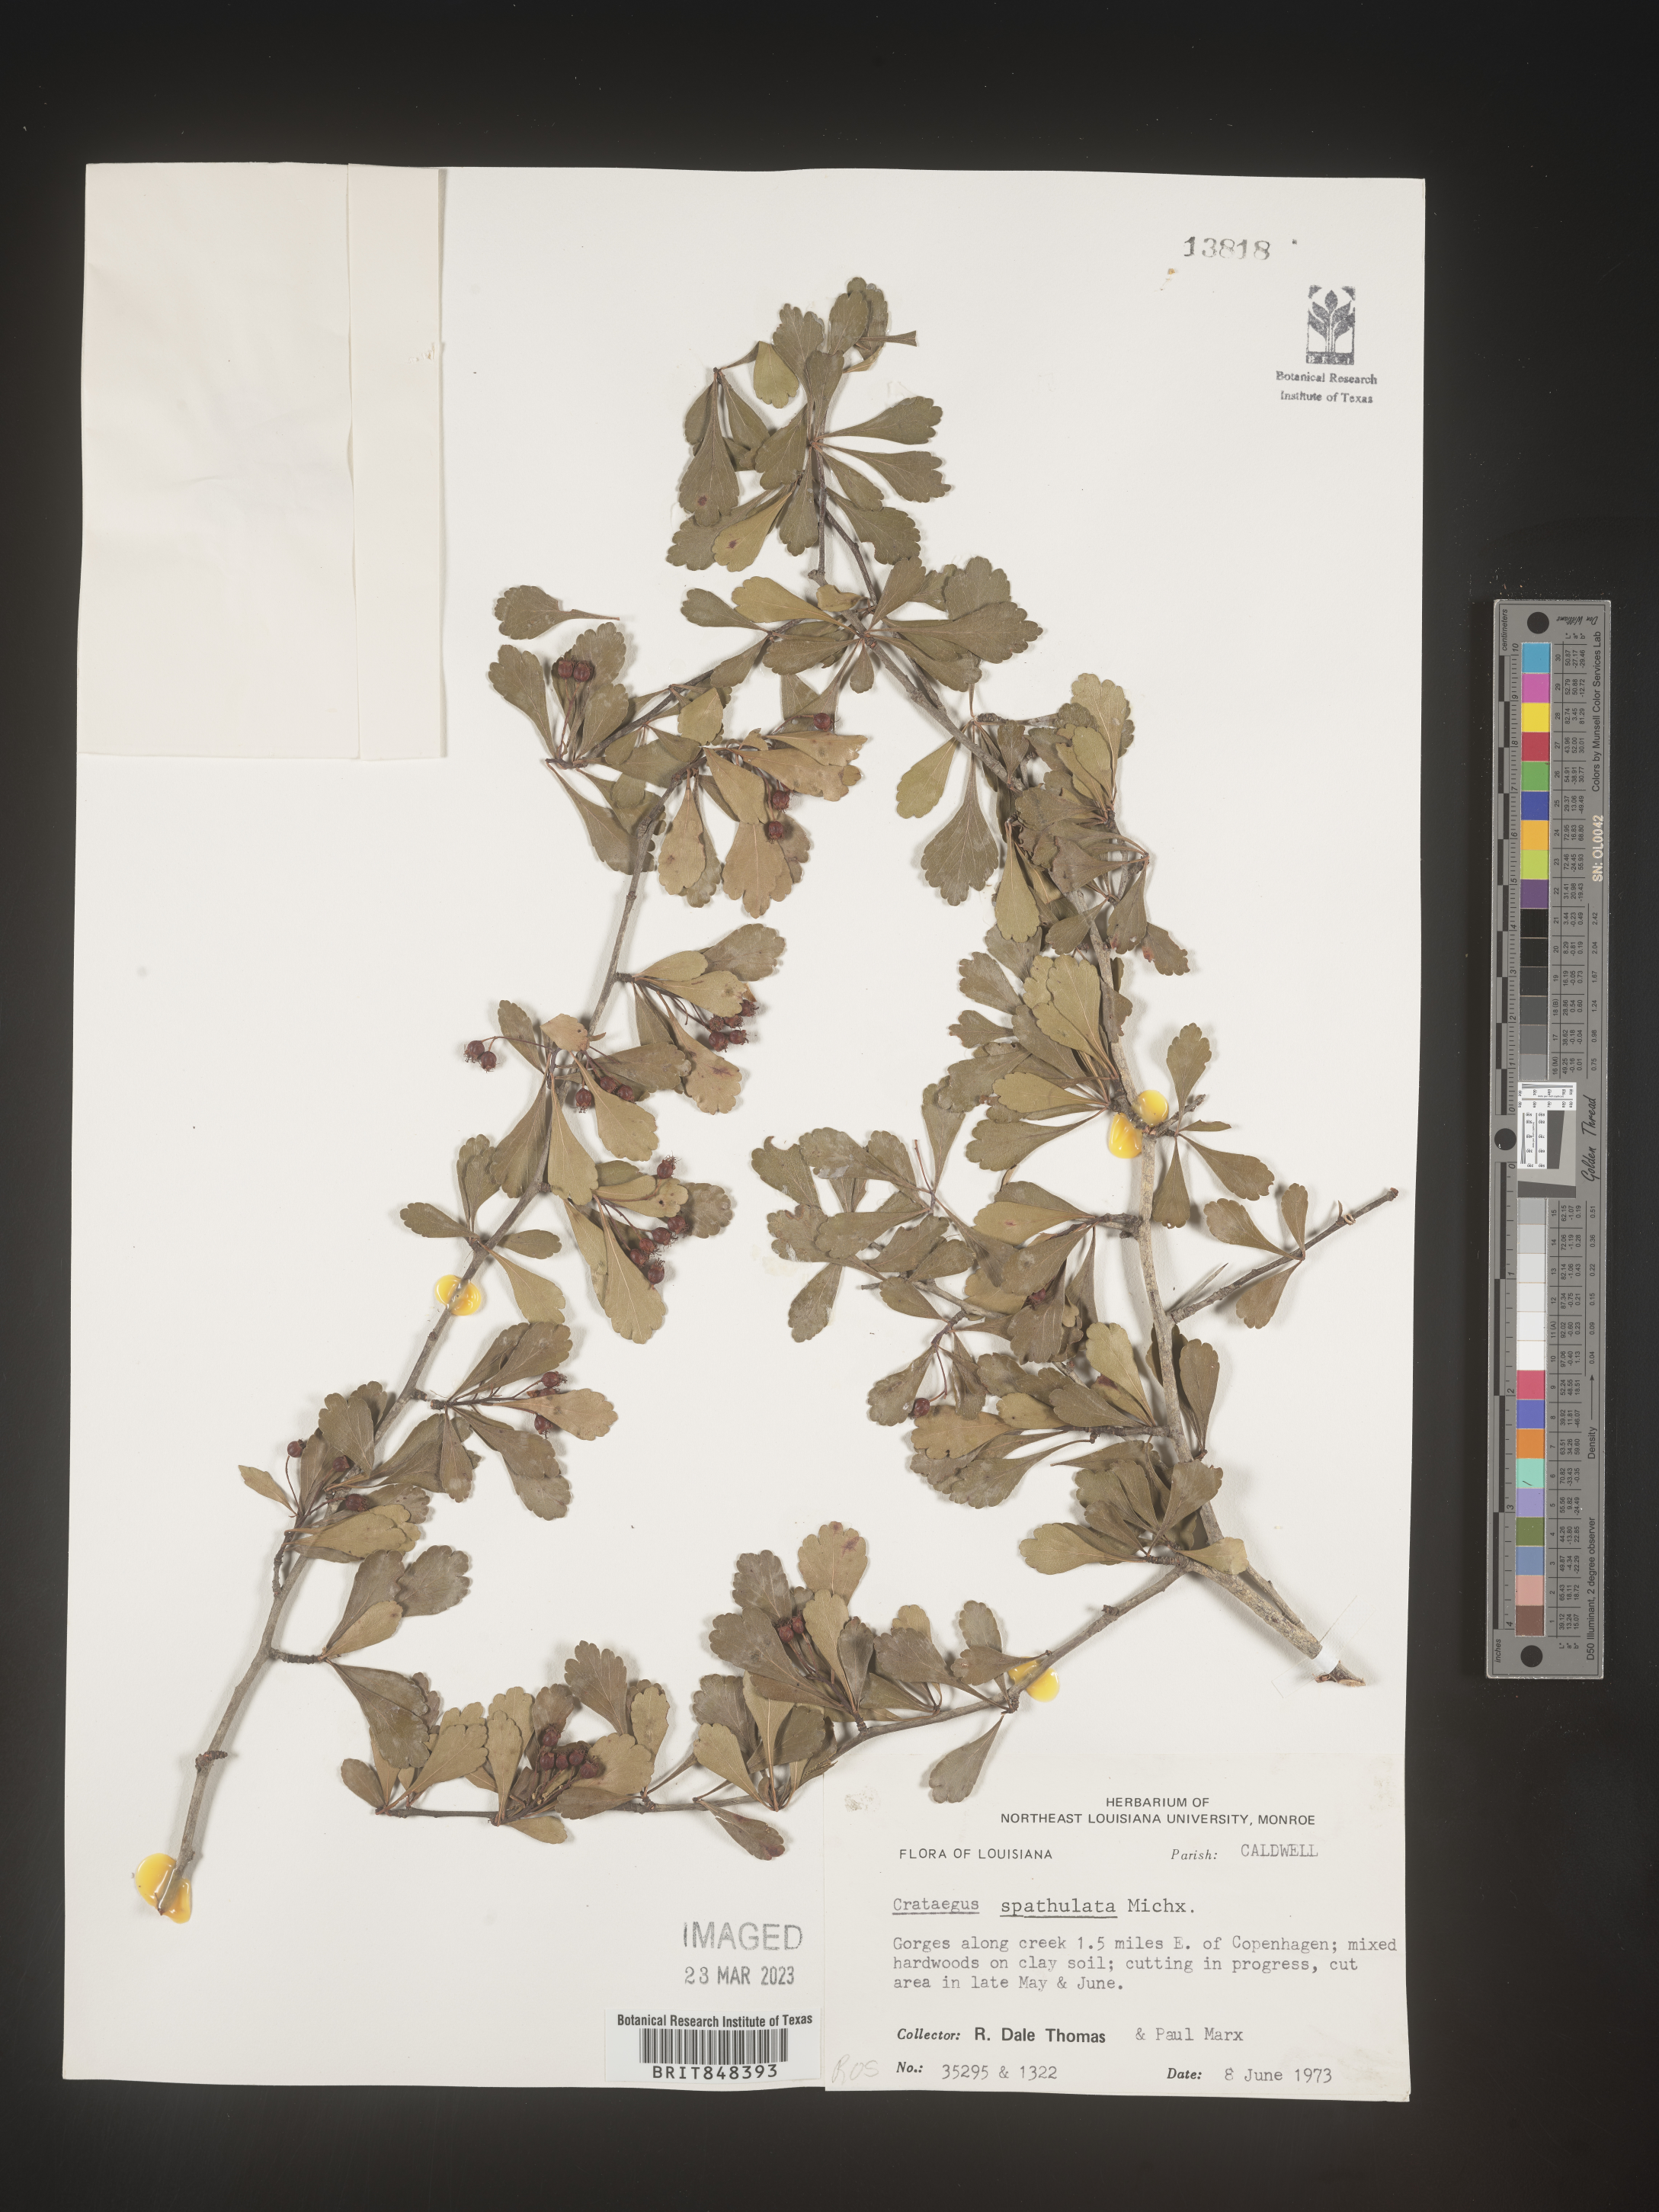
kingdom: Plantae
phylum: Tracheophyta
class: Magnoliopsida
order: Rosales
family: Rosaceae
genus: Crataegus
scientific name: Crataegus spathulata
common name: Littlehip hawthorn
